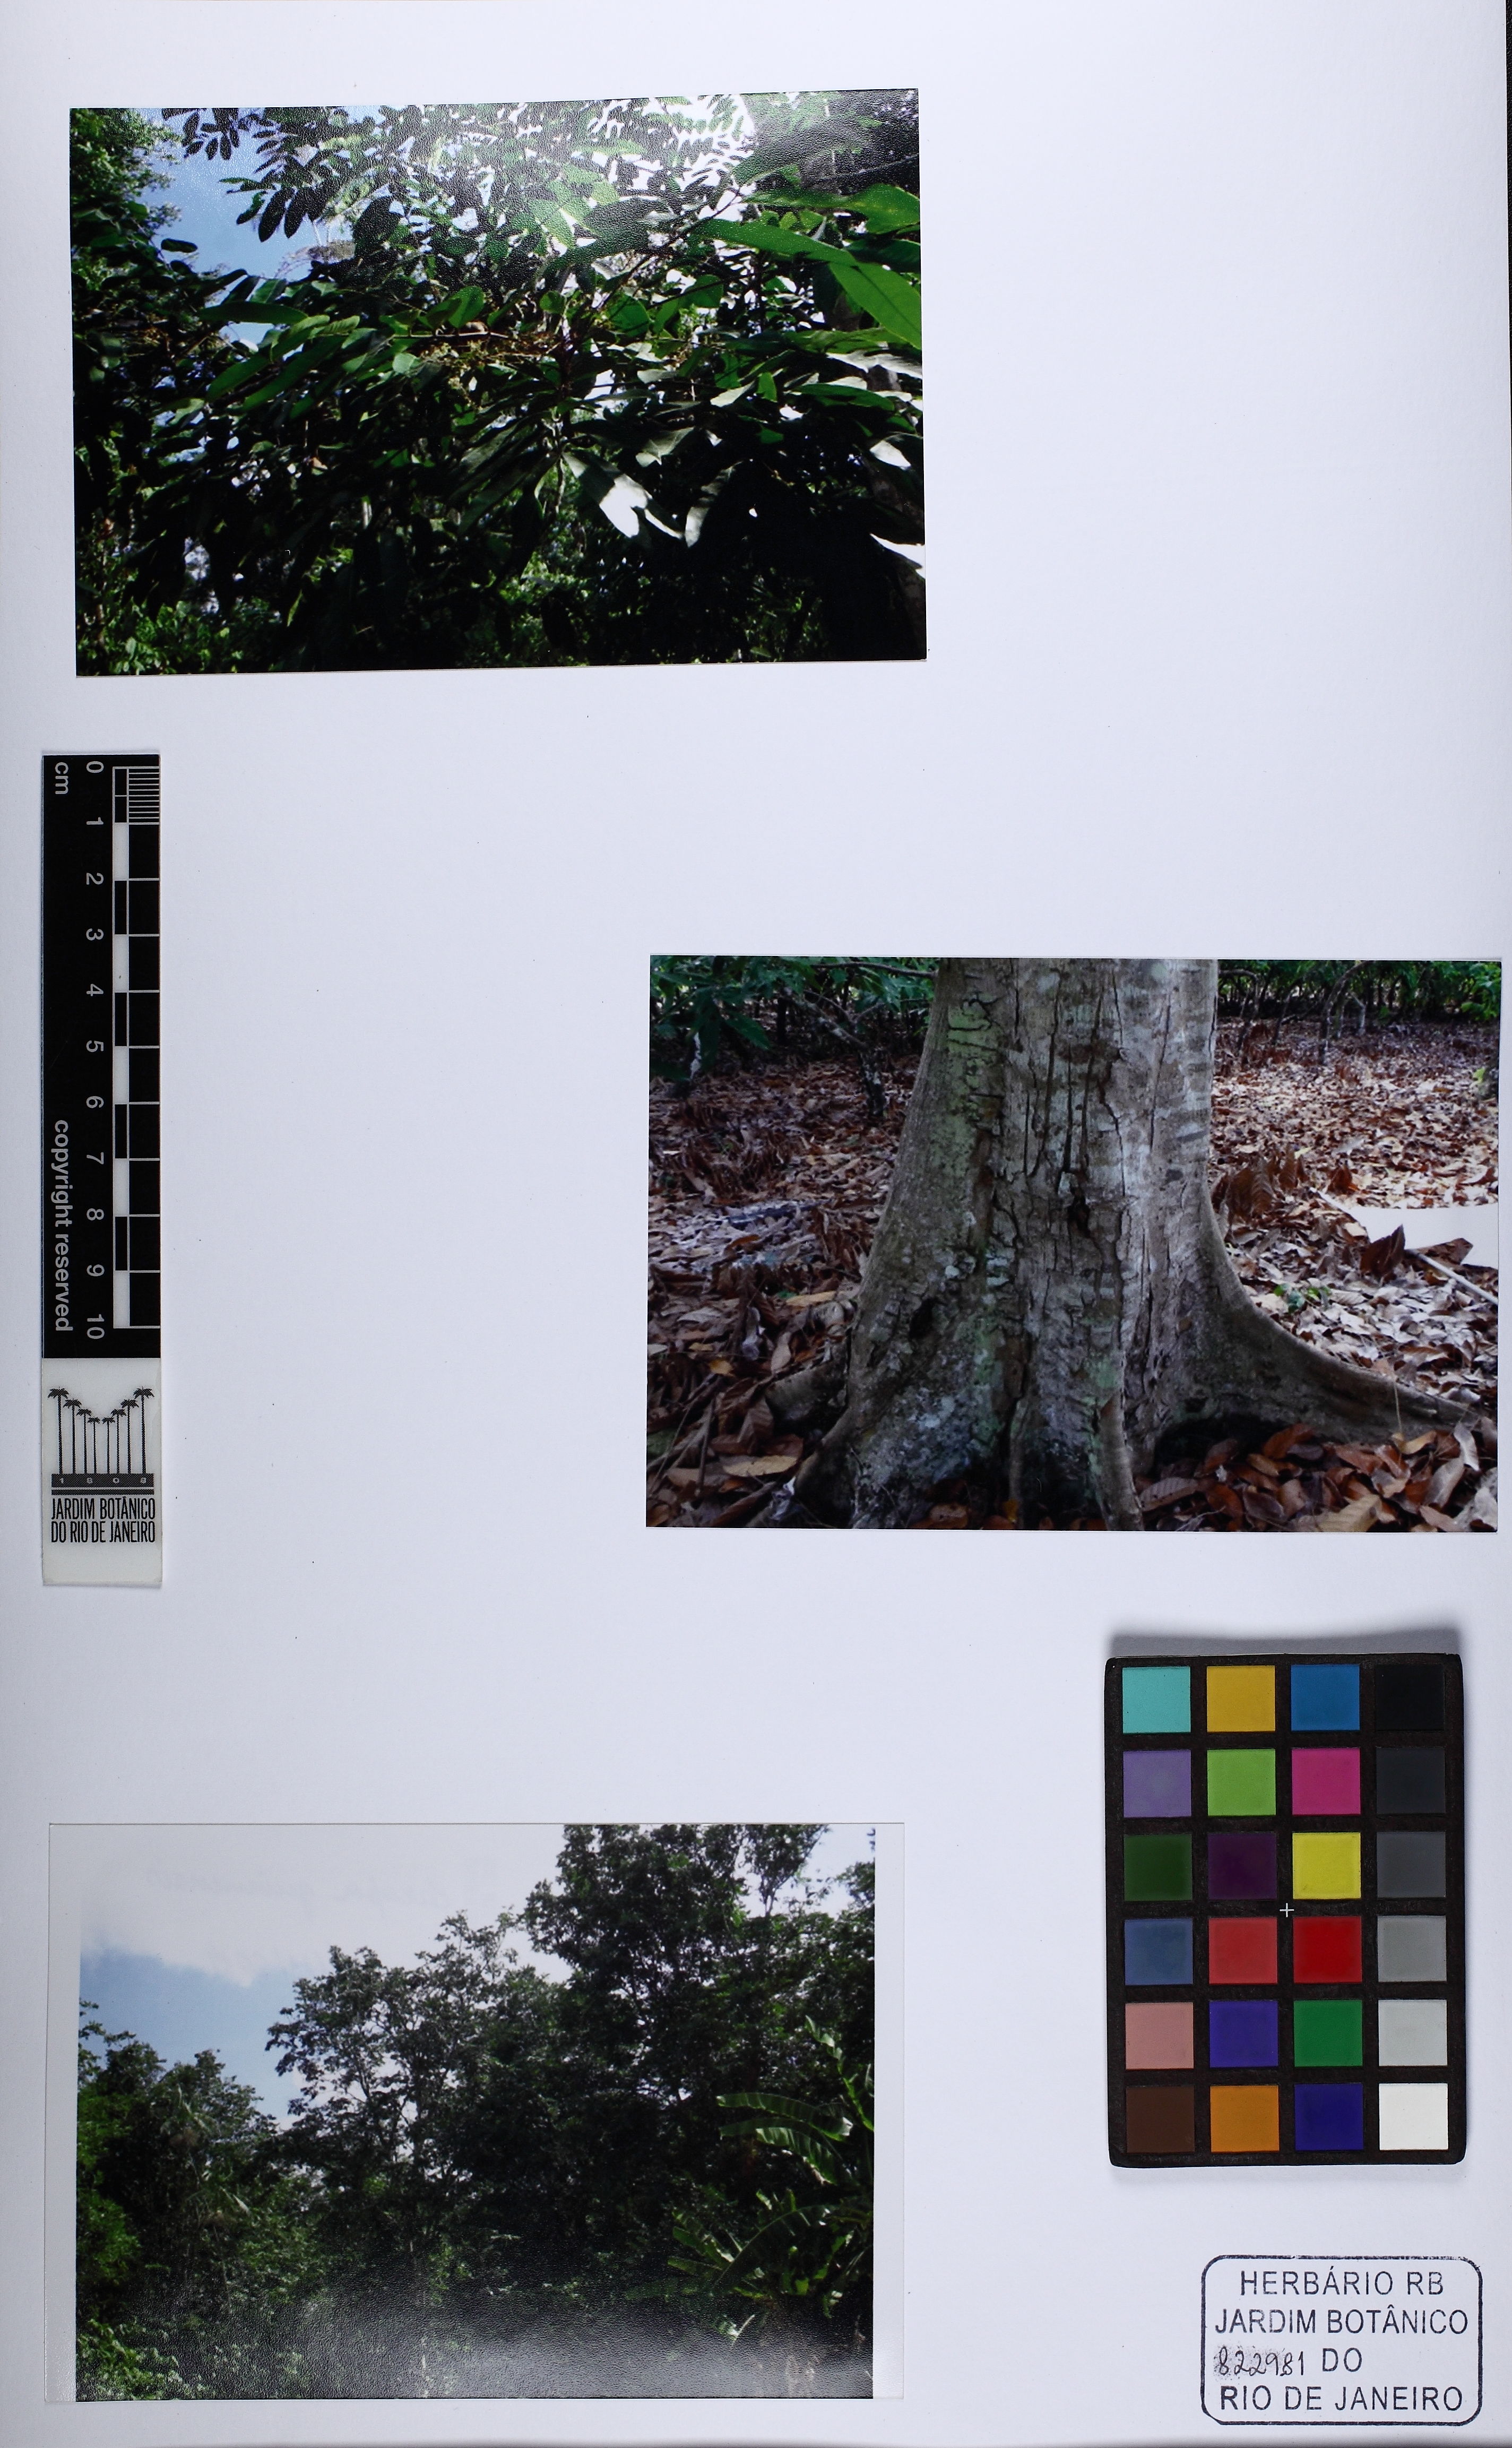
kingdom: Plantae
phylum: Tracheophyta
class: Magnoliopsida
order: Sapindales
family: Meliaceae
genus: Carapa
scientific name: Carapa guianensis
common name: Crabwood
